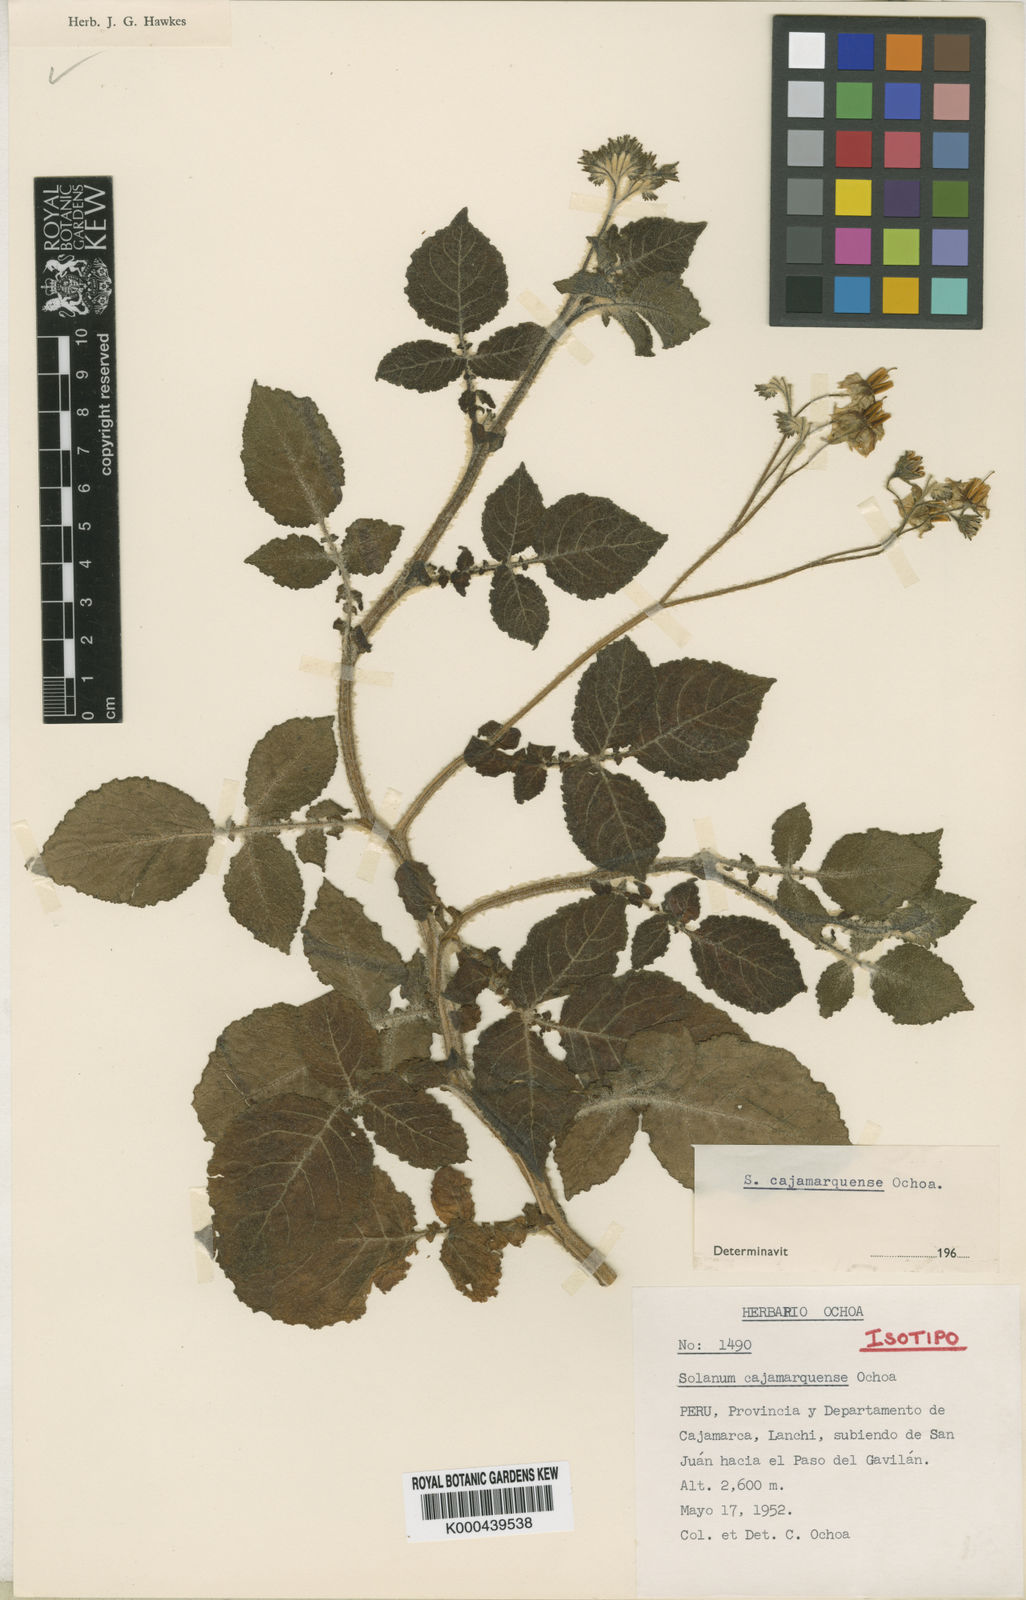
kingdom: Plantae
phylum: Tracheophyta
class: Magnoliopsida
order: Solanales
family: Solanaceae
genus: Solanum
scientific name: Solanum cajamarquense
